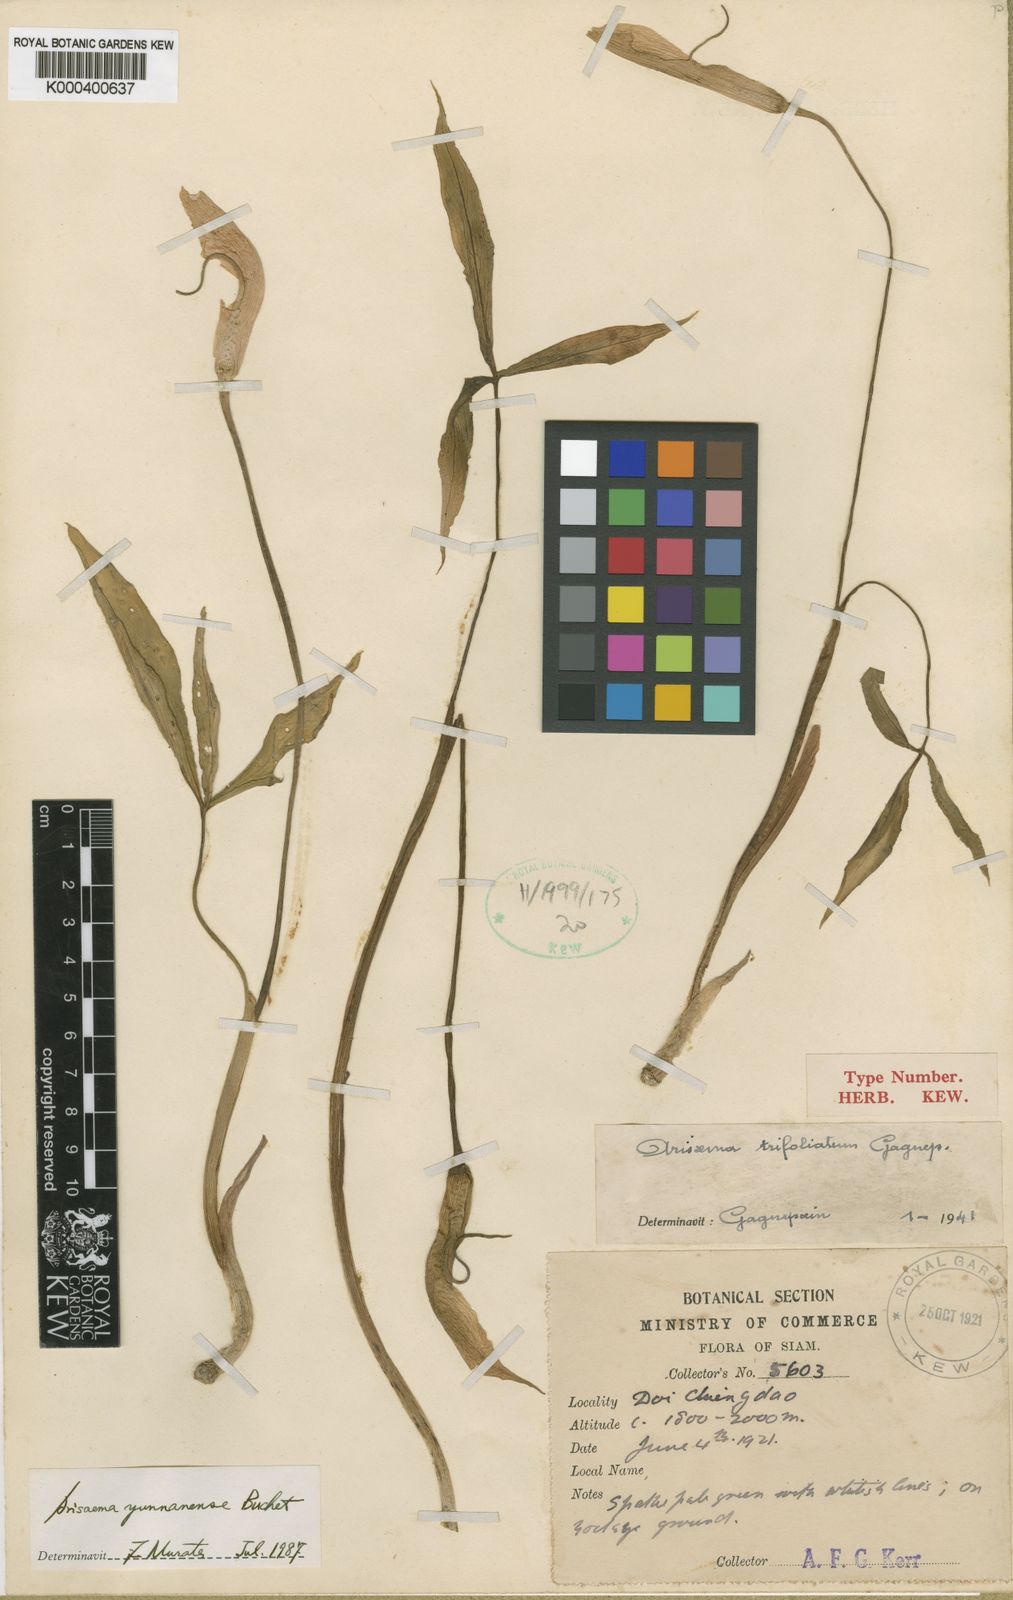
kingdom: Plantae
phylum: Tracheophyta
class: Liliopsida
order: Alismatales
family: Araceae
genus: Arisaema
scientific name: Arisaema yunnanense
